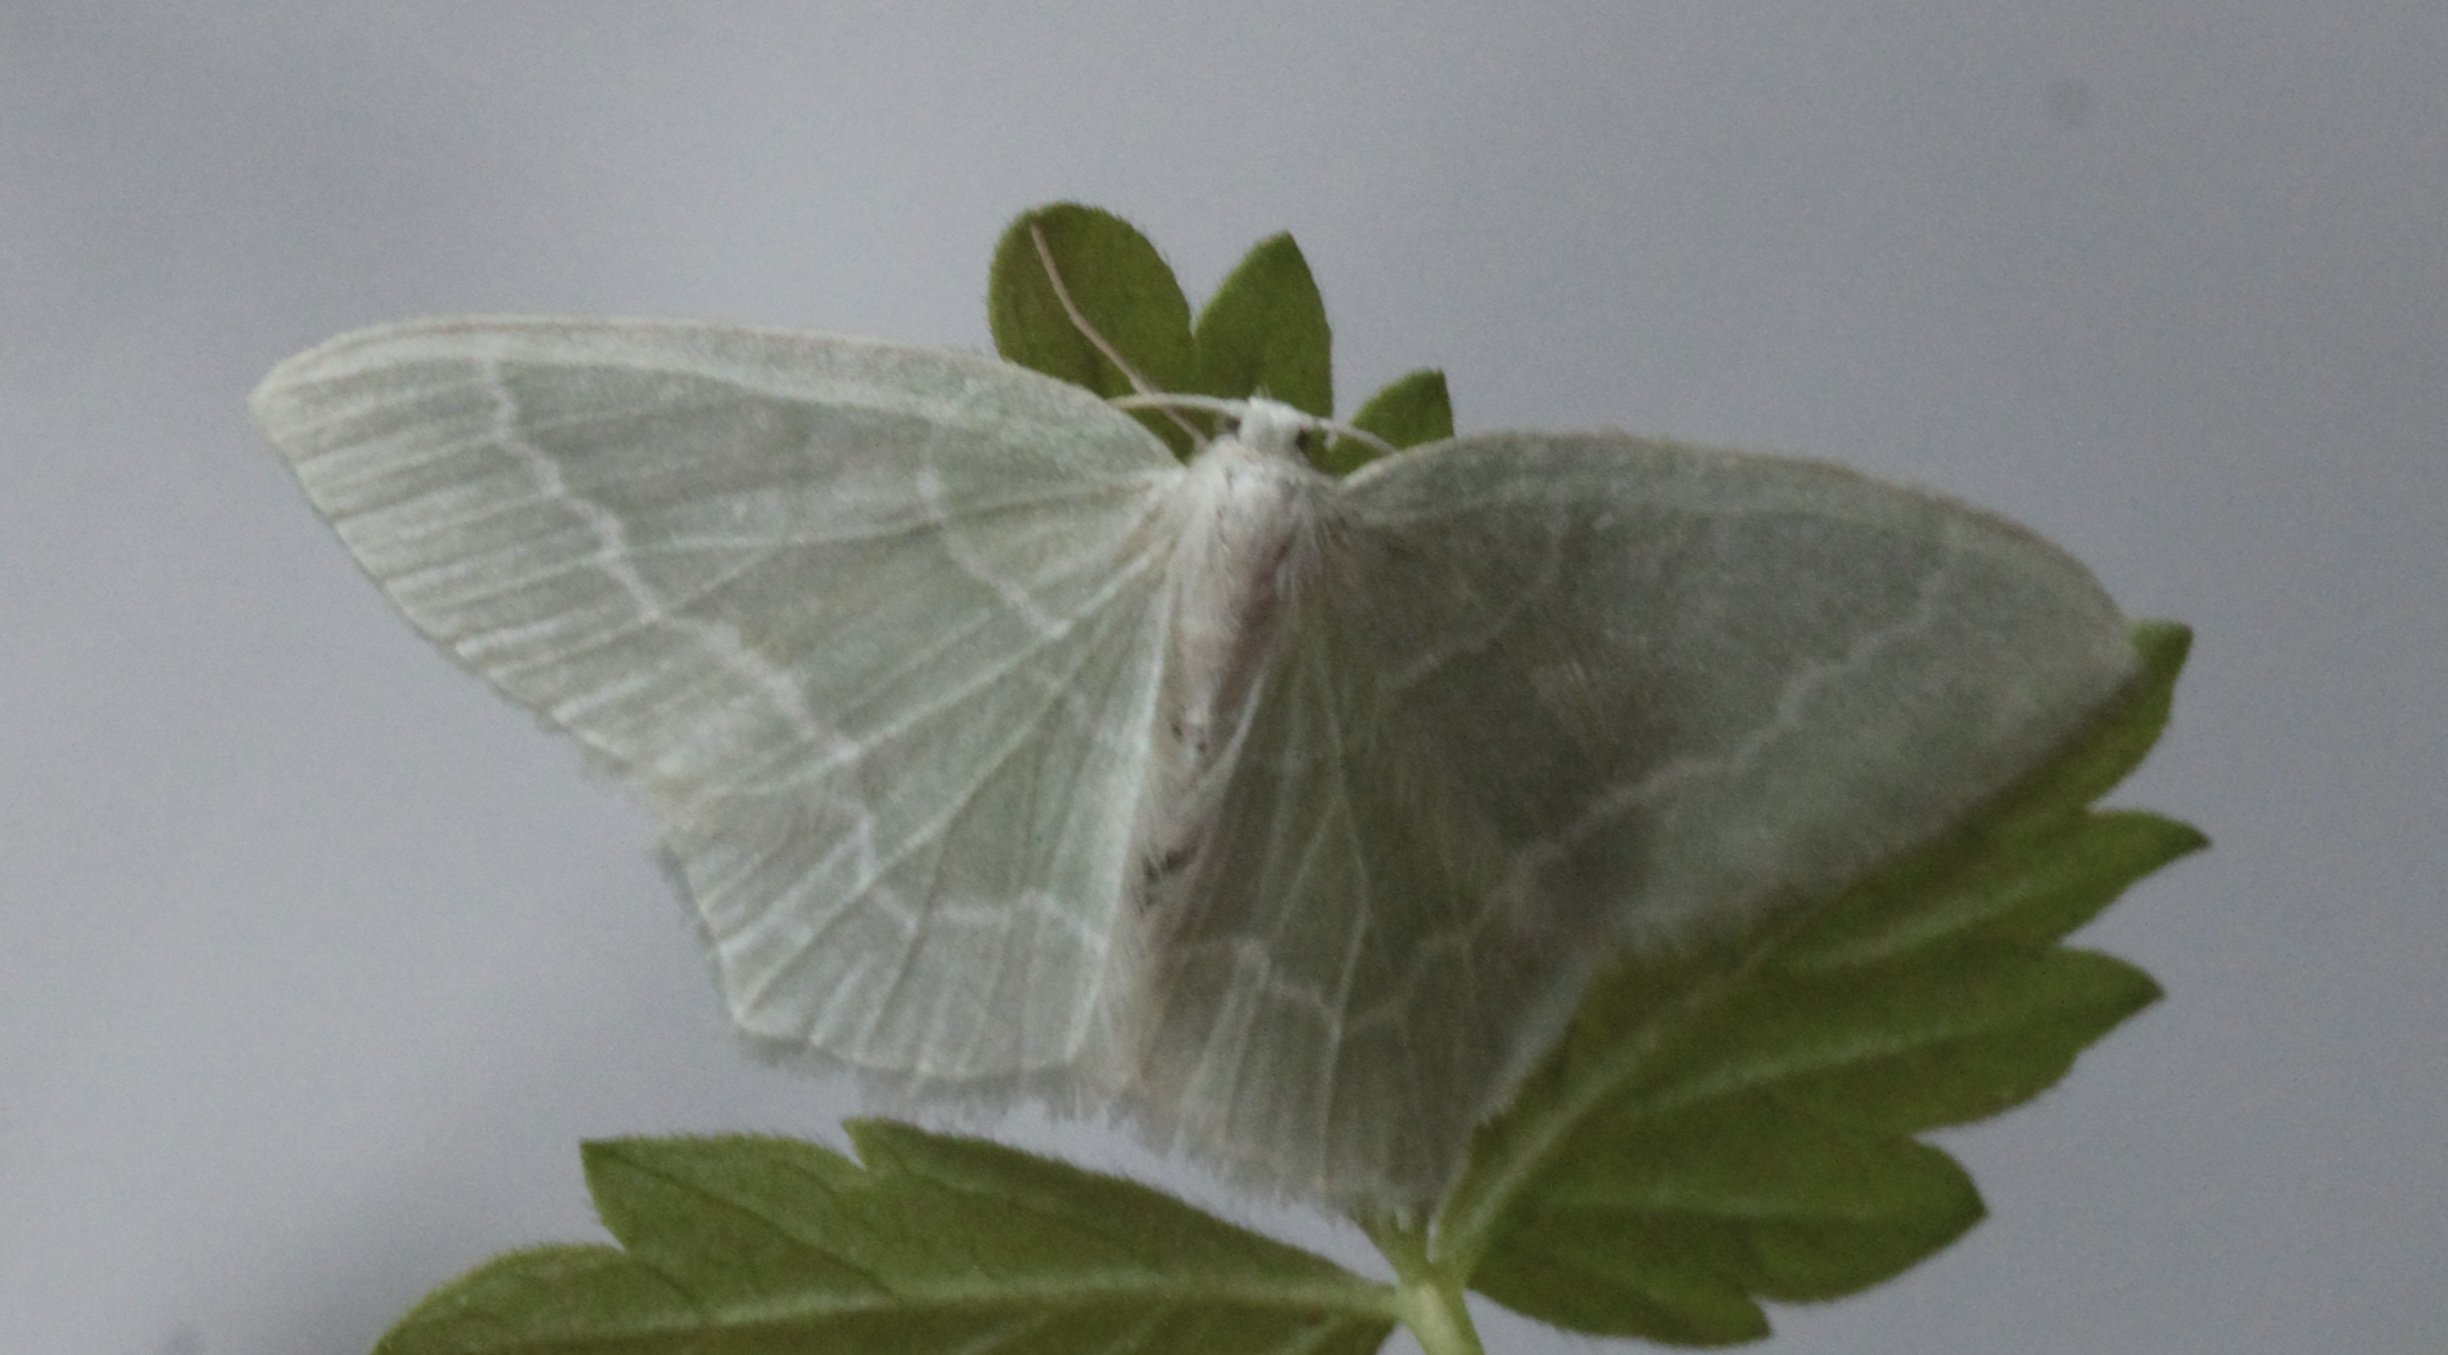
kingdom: Animalia
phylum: Arthropoda
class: Insecta
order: Lepidoptera
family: Geometridae
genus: Jodis
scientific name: Jodis putata
